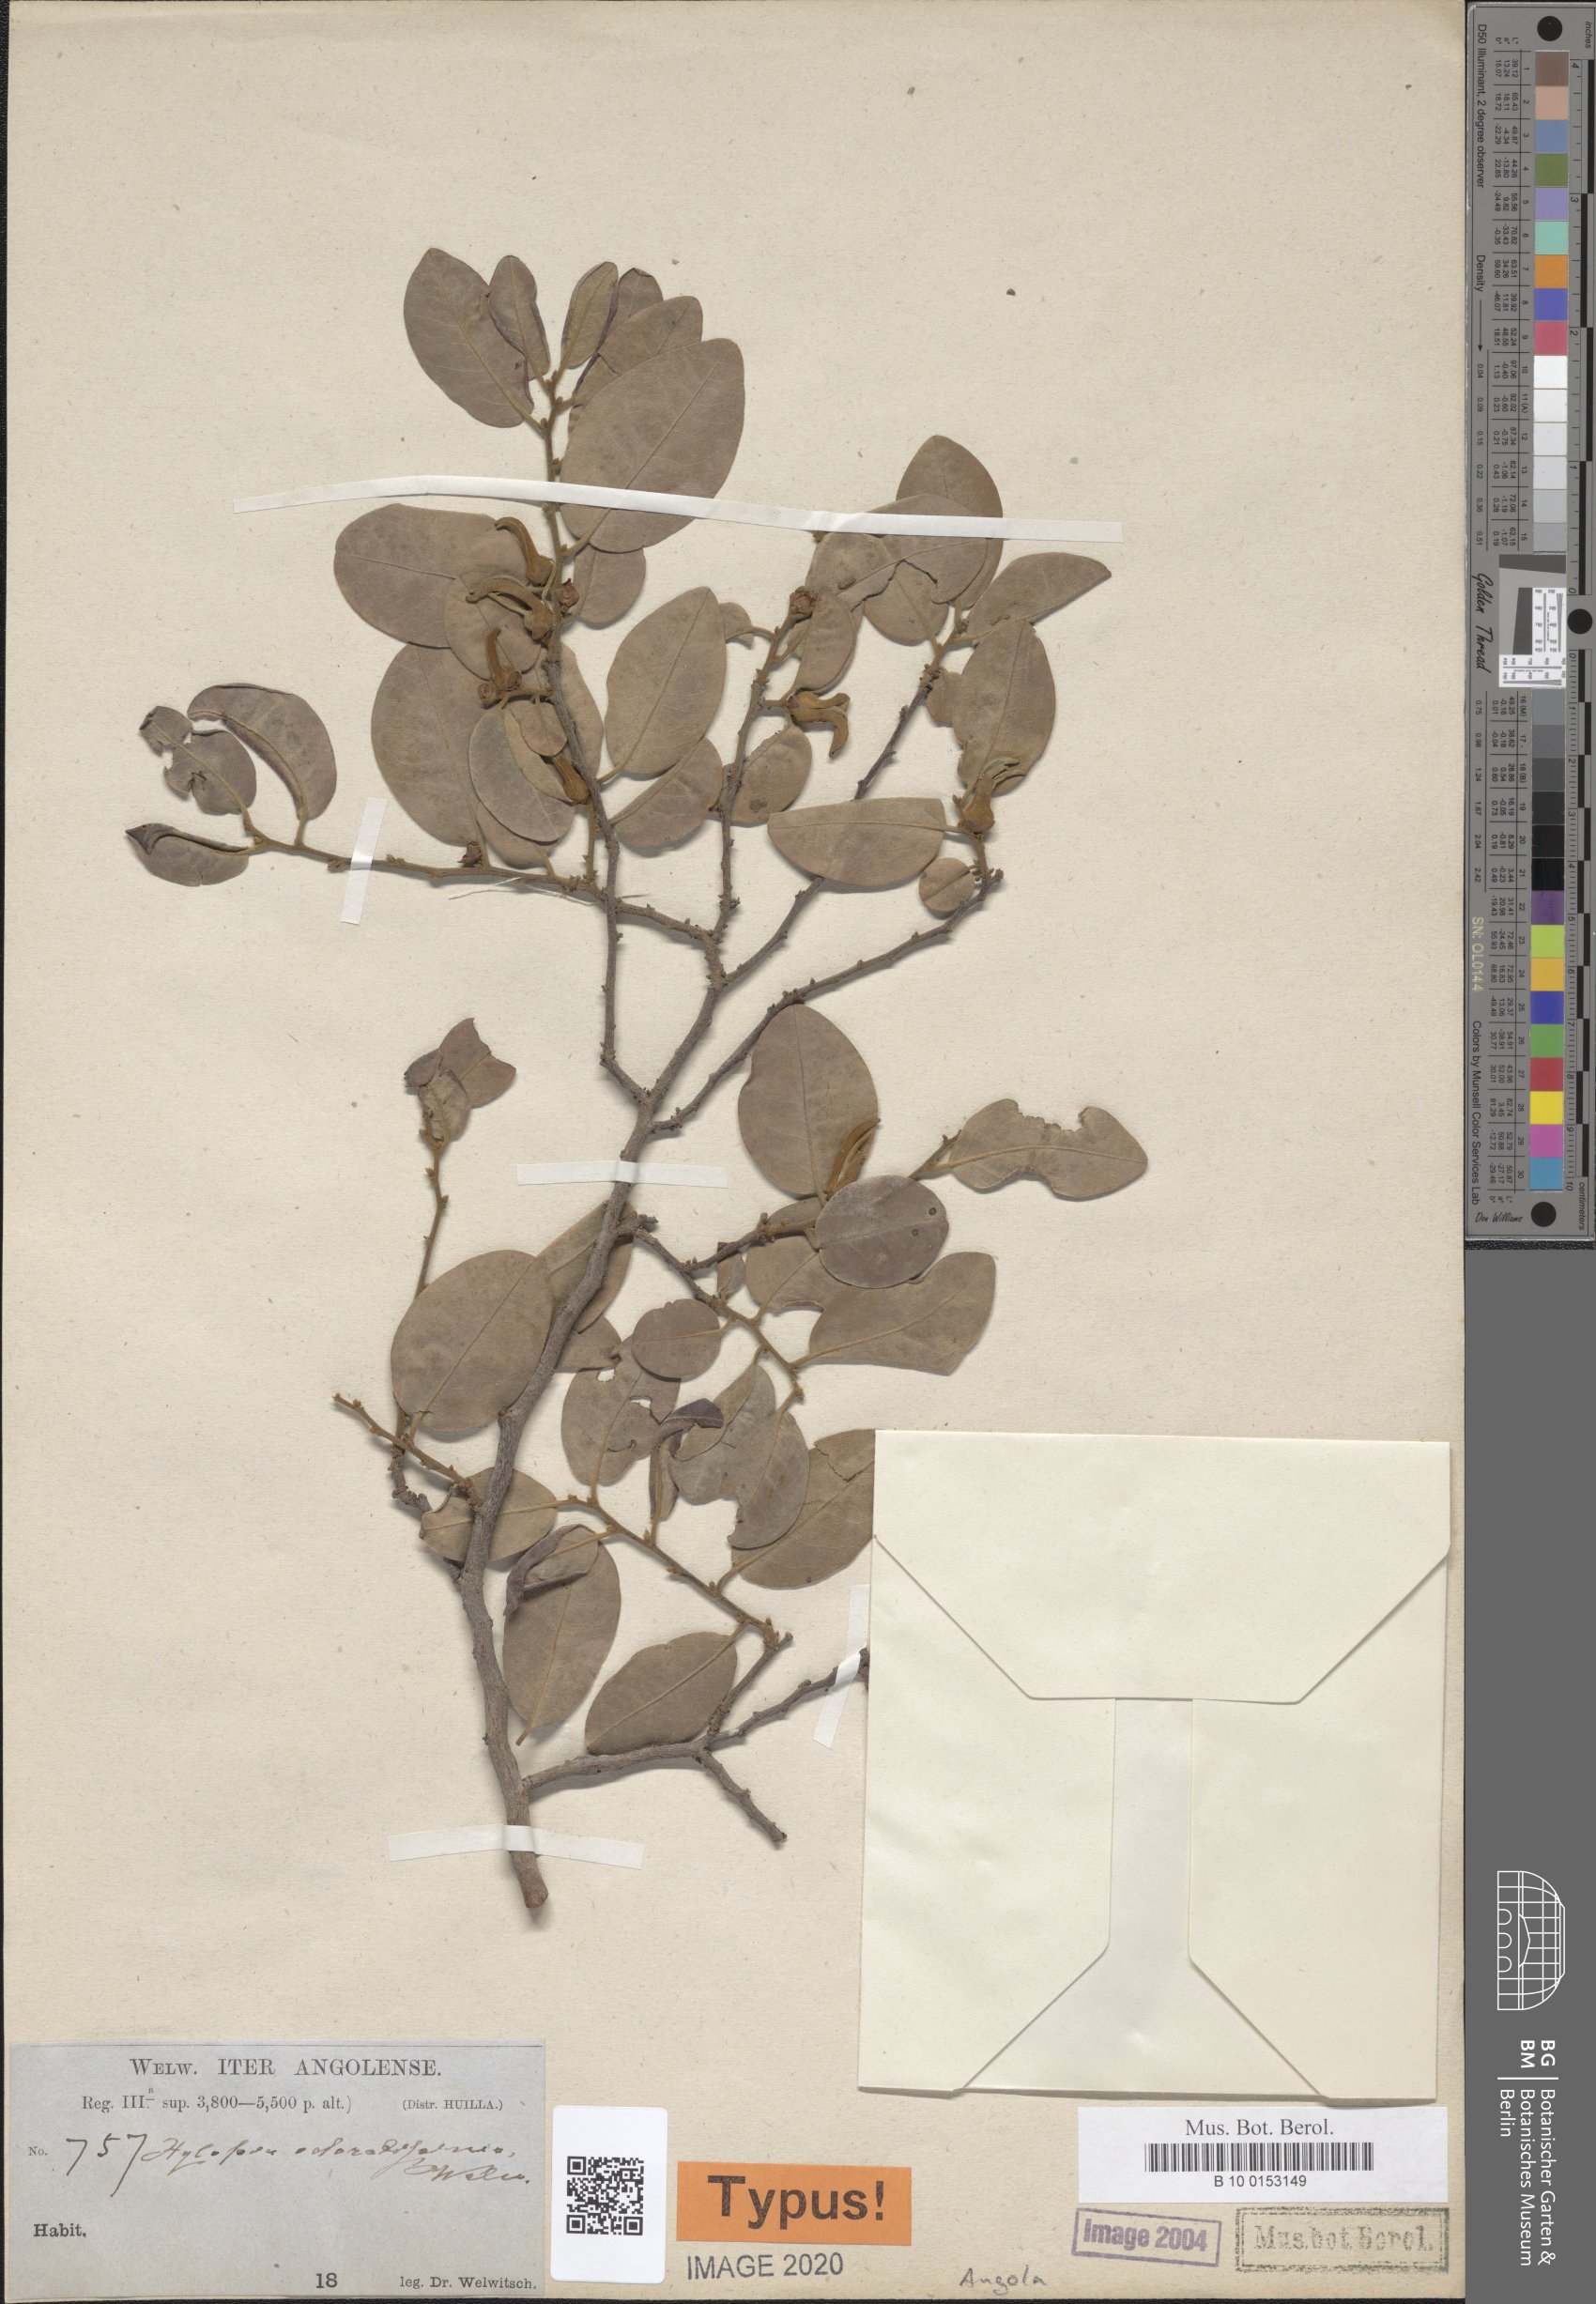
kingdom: Plantae
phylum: Tracheophyta
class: Magnoliopsida
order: Magnoliales
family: Annonaceae
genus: Xylopia
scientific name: Xylopia odoratissima
